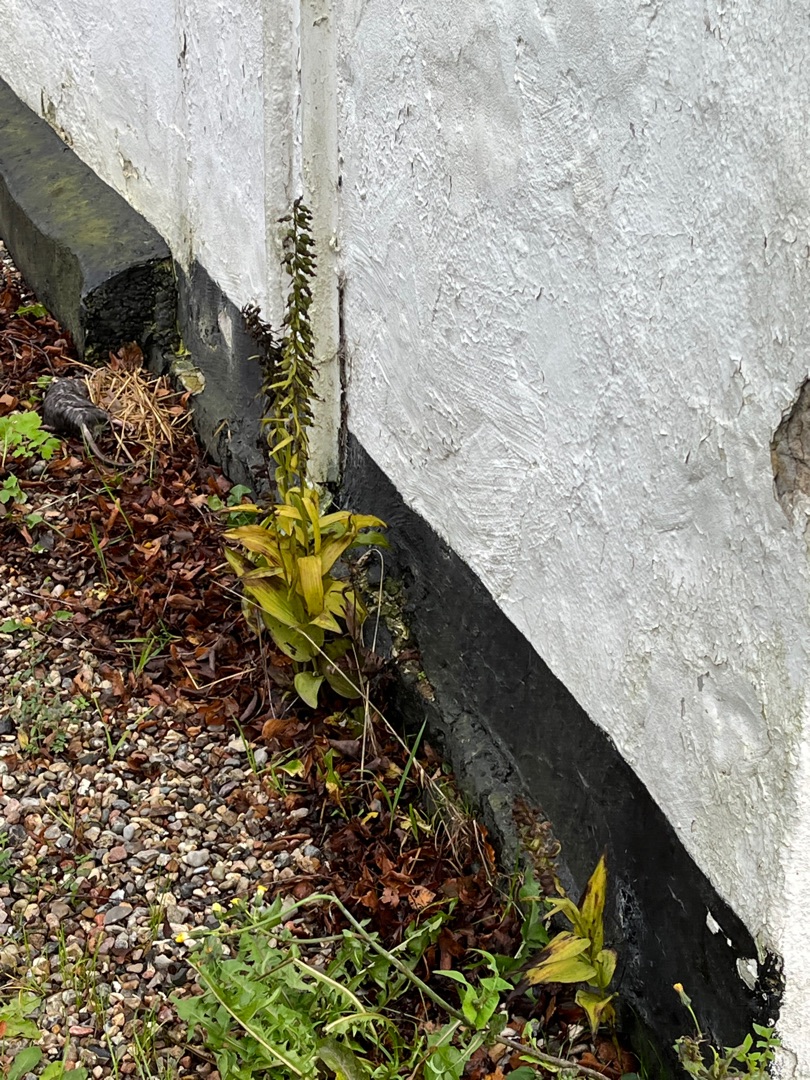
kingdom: Plantae
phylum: Tracheophyta
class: Liliopsida
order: Asparagales
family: Orchidaceae
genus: Epipactis
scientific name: Epipactis helleborine
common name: Skov-hullæbe
